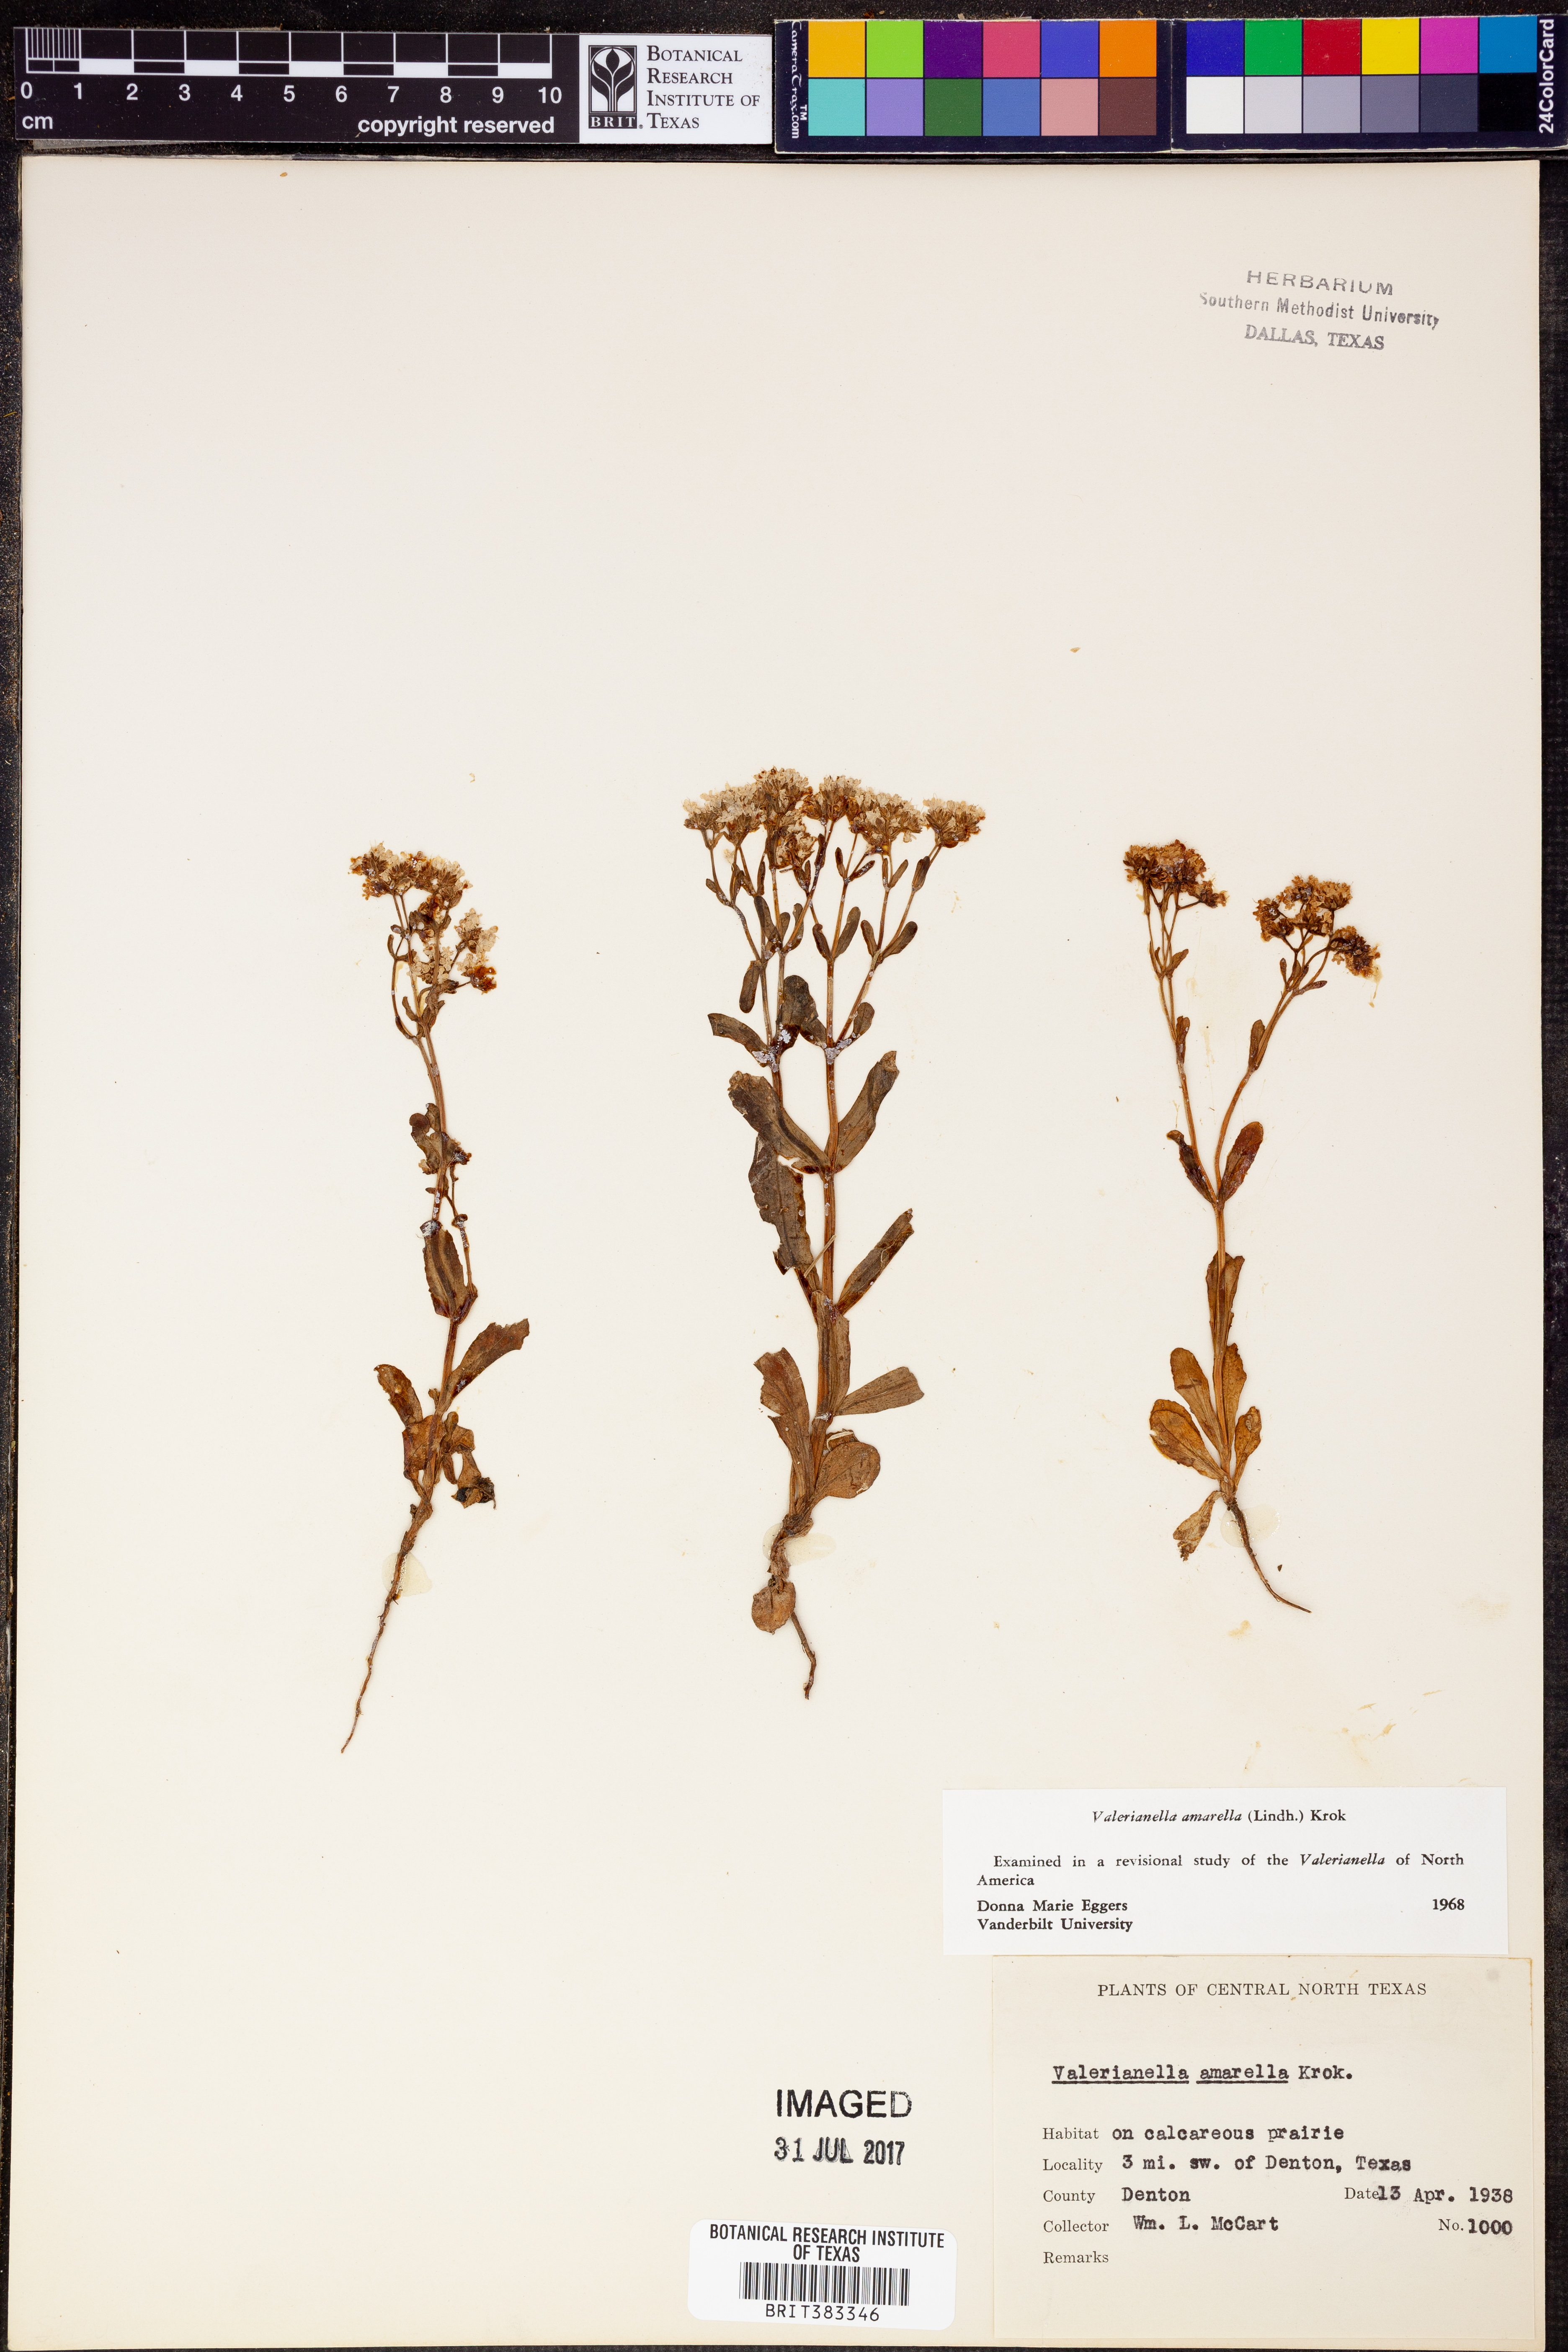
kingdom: Plantae
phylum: Tracheophyta
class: Magnoliopsida
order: Dipsacales
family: Caprifoliaceae
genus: Valerianella
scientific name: Valerianella amarella
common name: Hariy cornsalad
